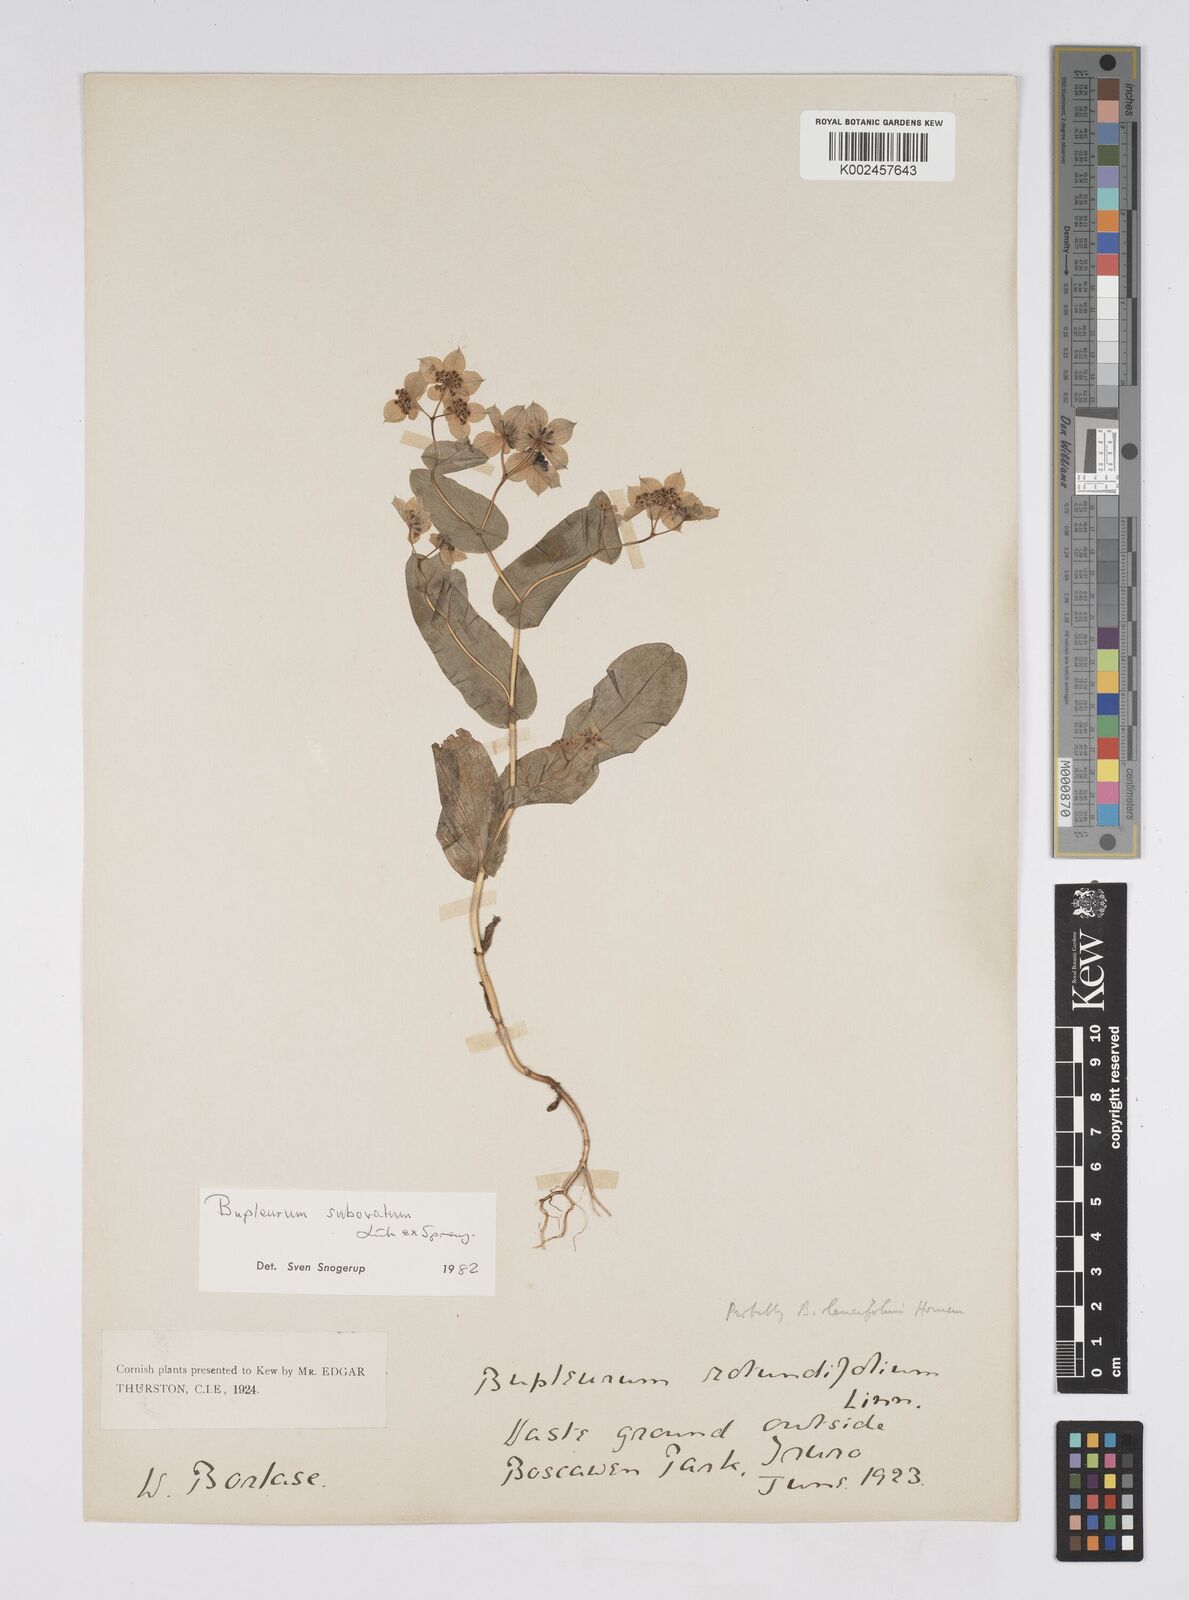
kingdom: Plantae
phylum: Tracheophyta
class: Magnoliopsida
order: Apiales
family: Apiaceae
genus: Bupleurum
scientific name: Bupleurum subovatum
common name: False thorow-wax
